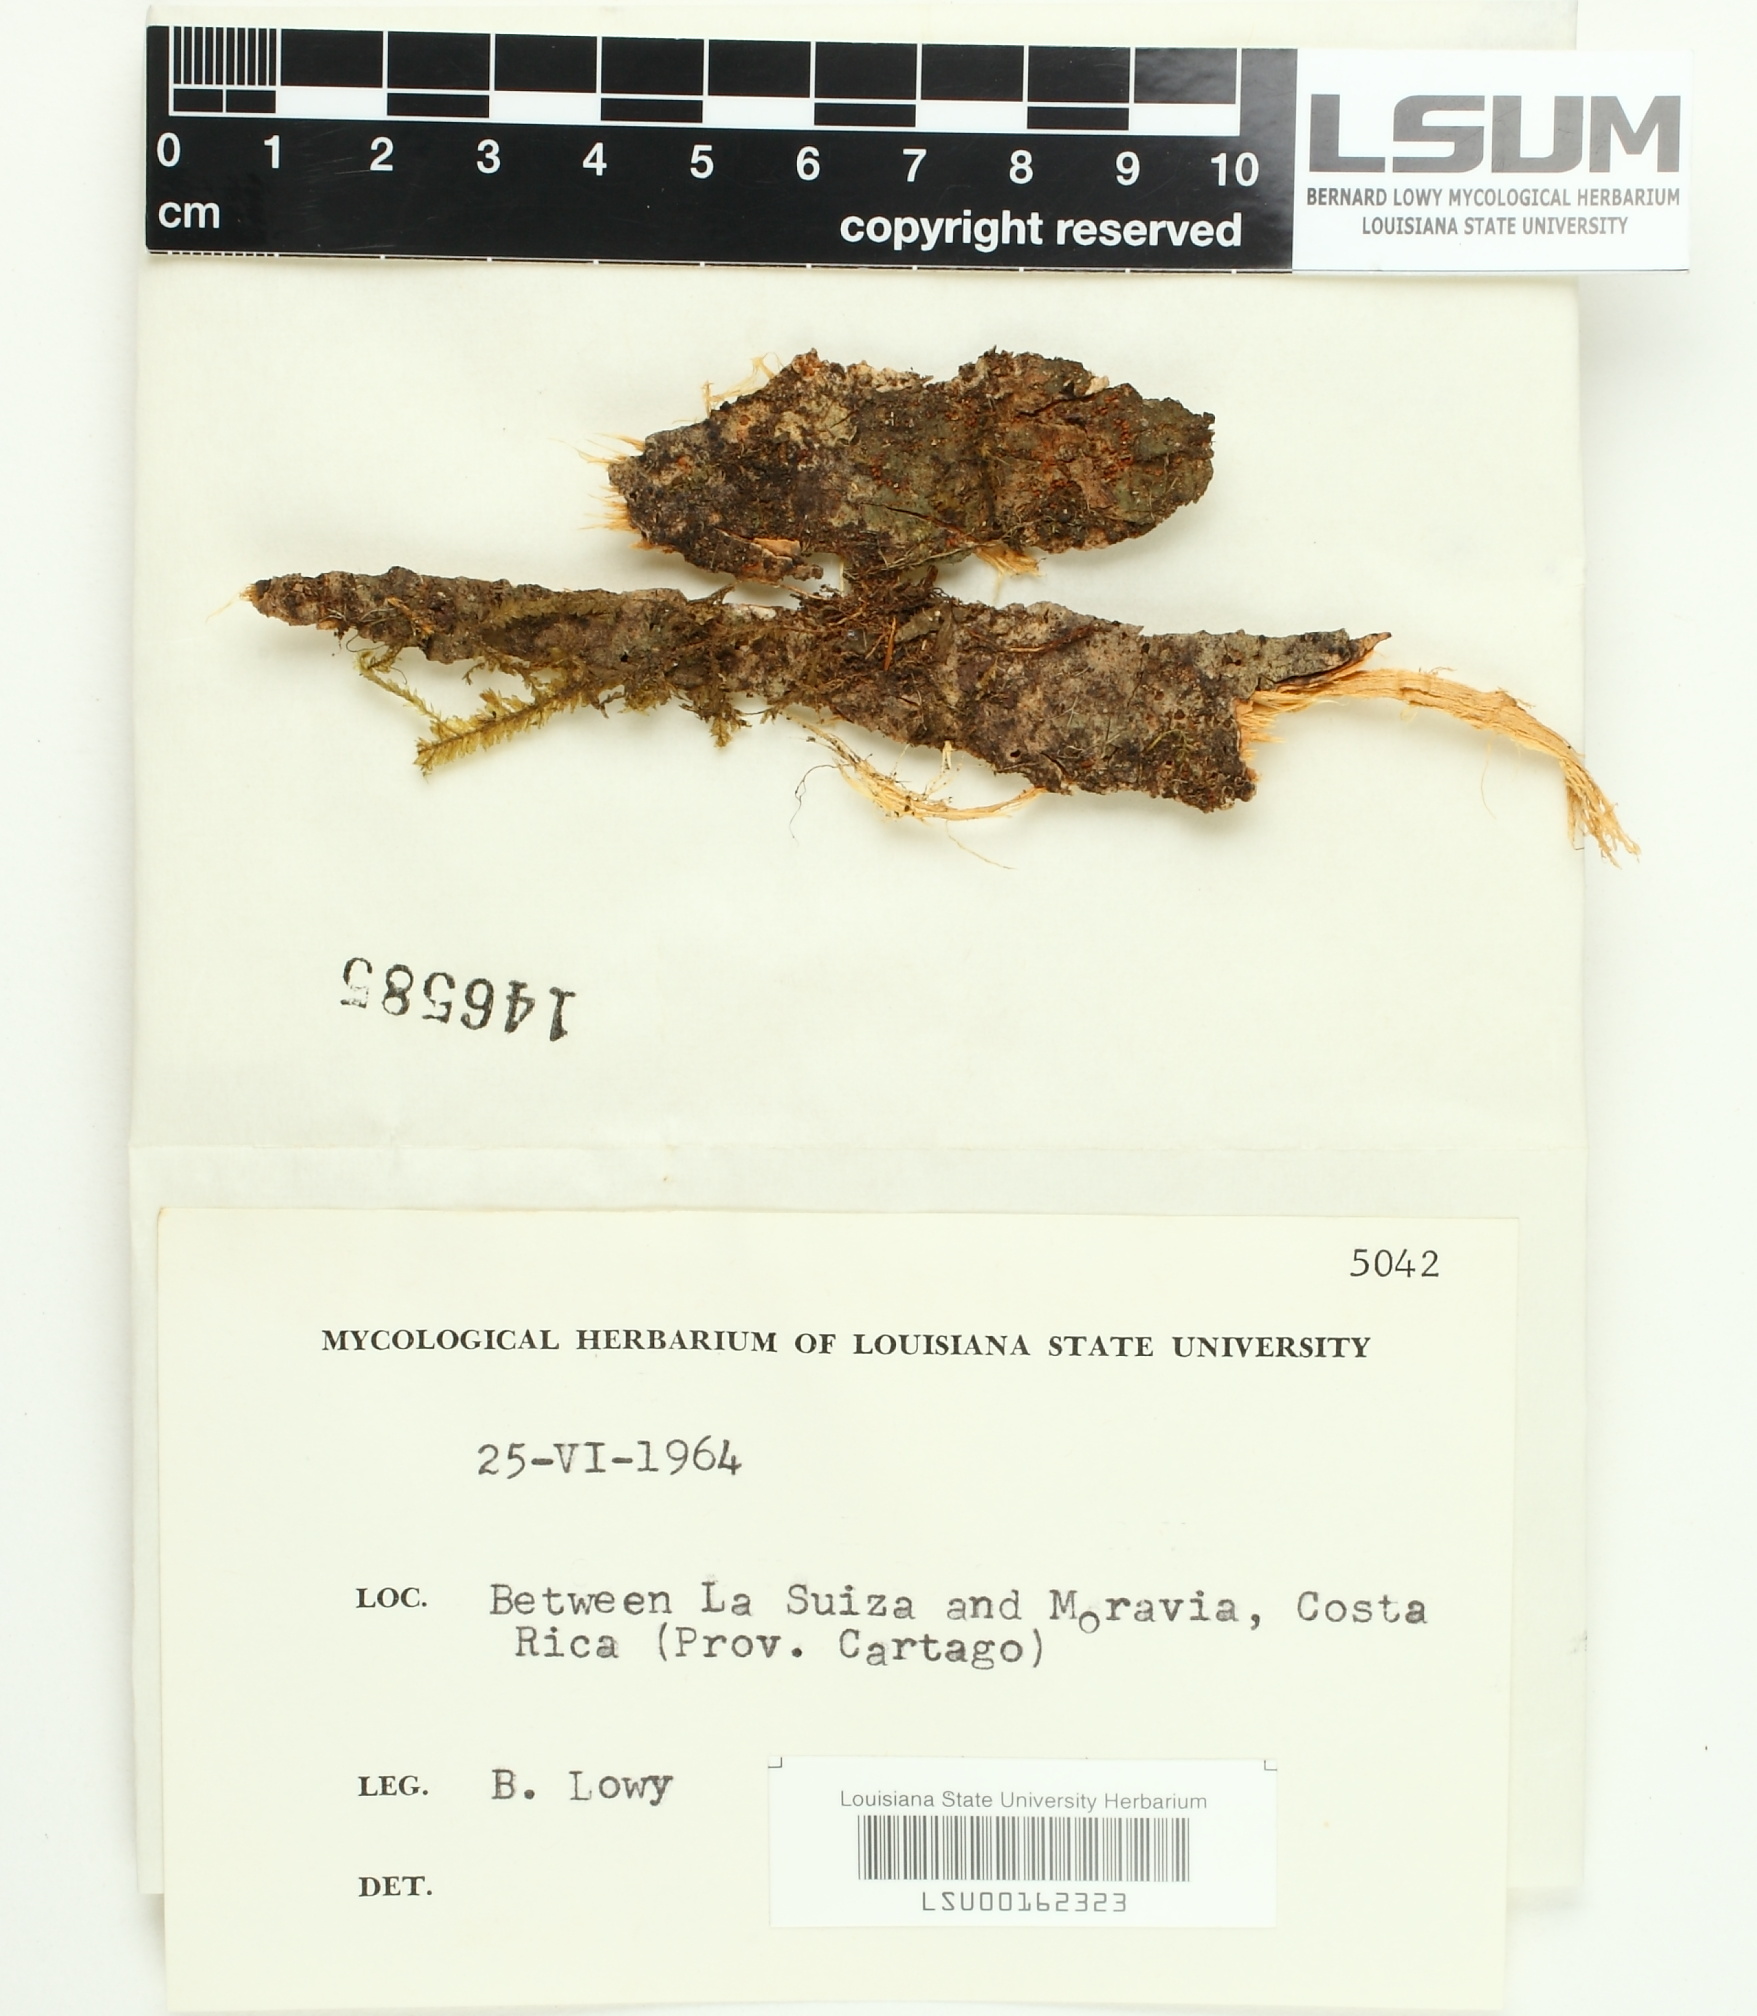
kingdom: Fungi
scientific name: Fungi
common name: Fungi
